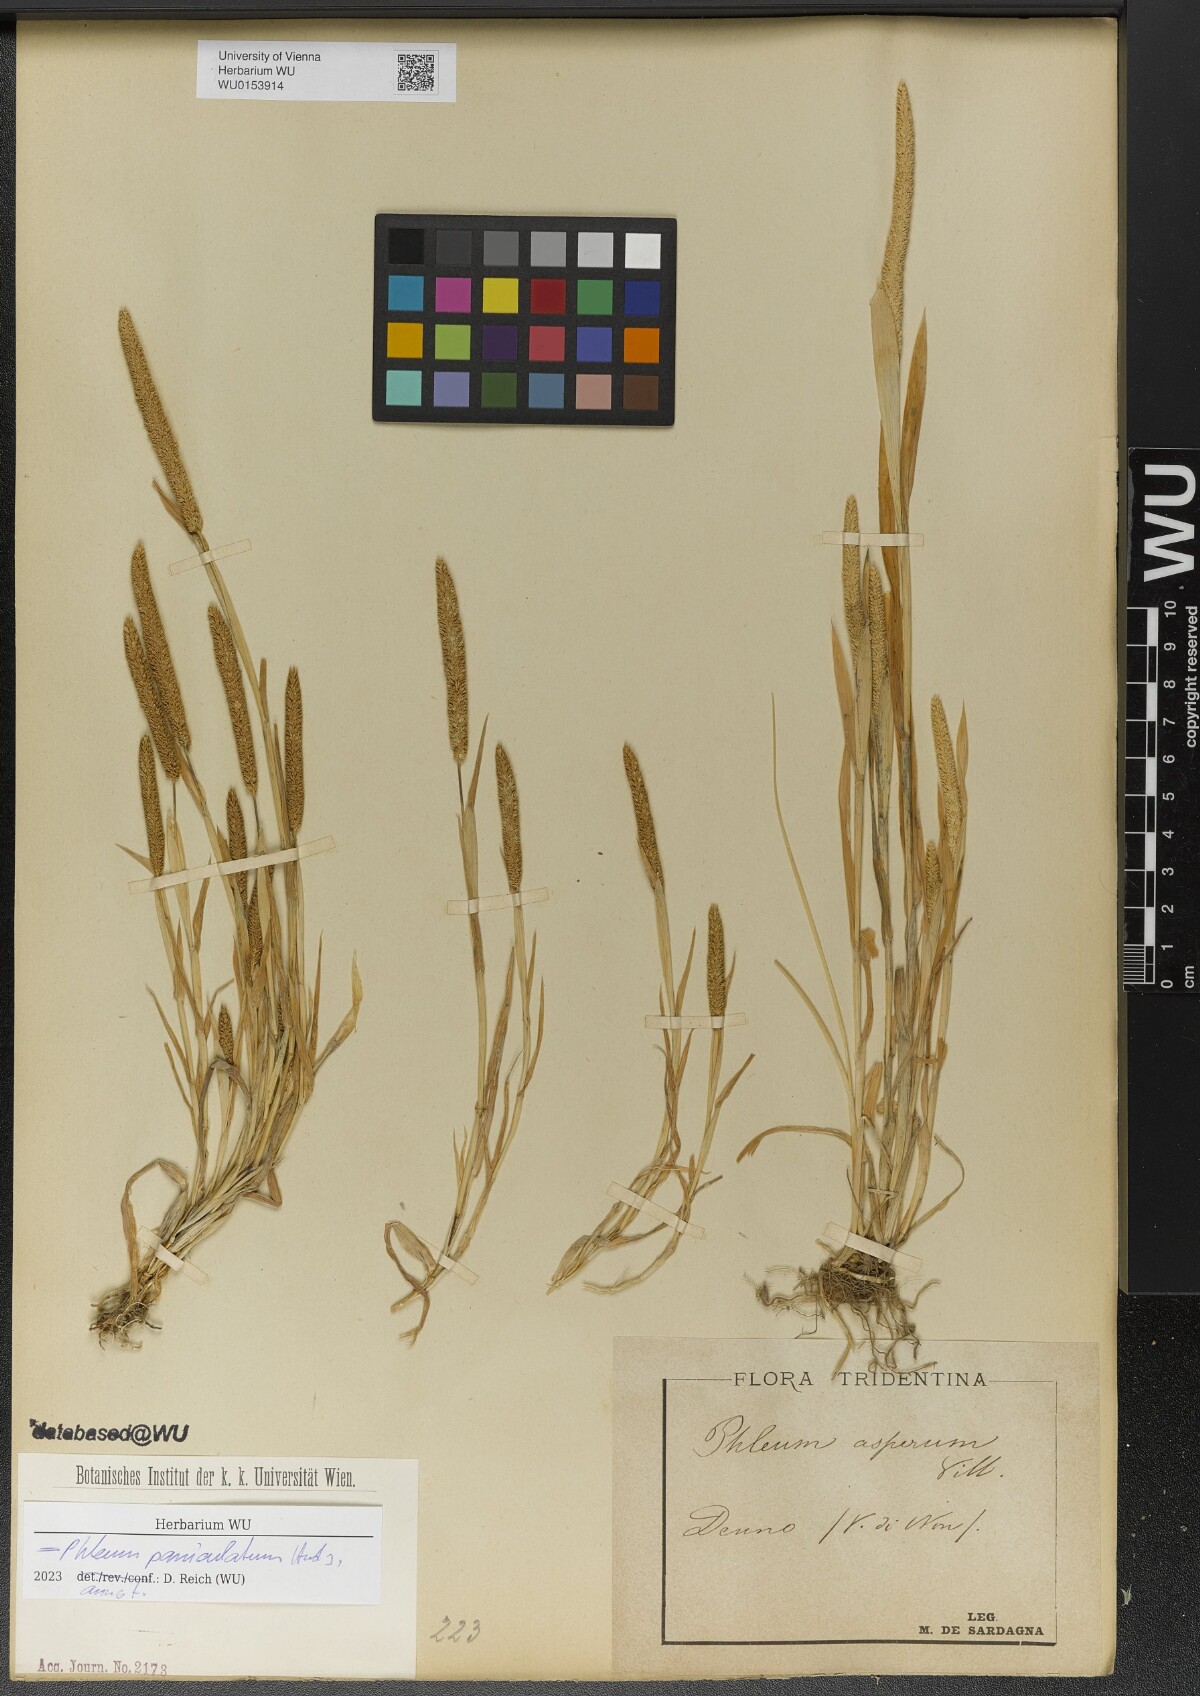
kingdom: Plantae
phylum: Tracheophyta
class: Liliopsida
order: Poales
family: Poaceae
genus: Phleum
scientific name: Phleum paniculatum
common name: British timothy
